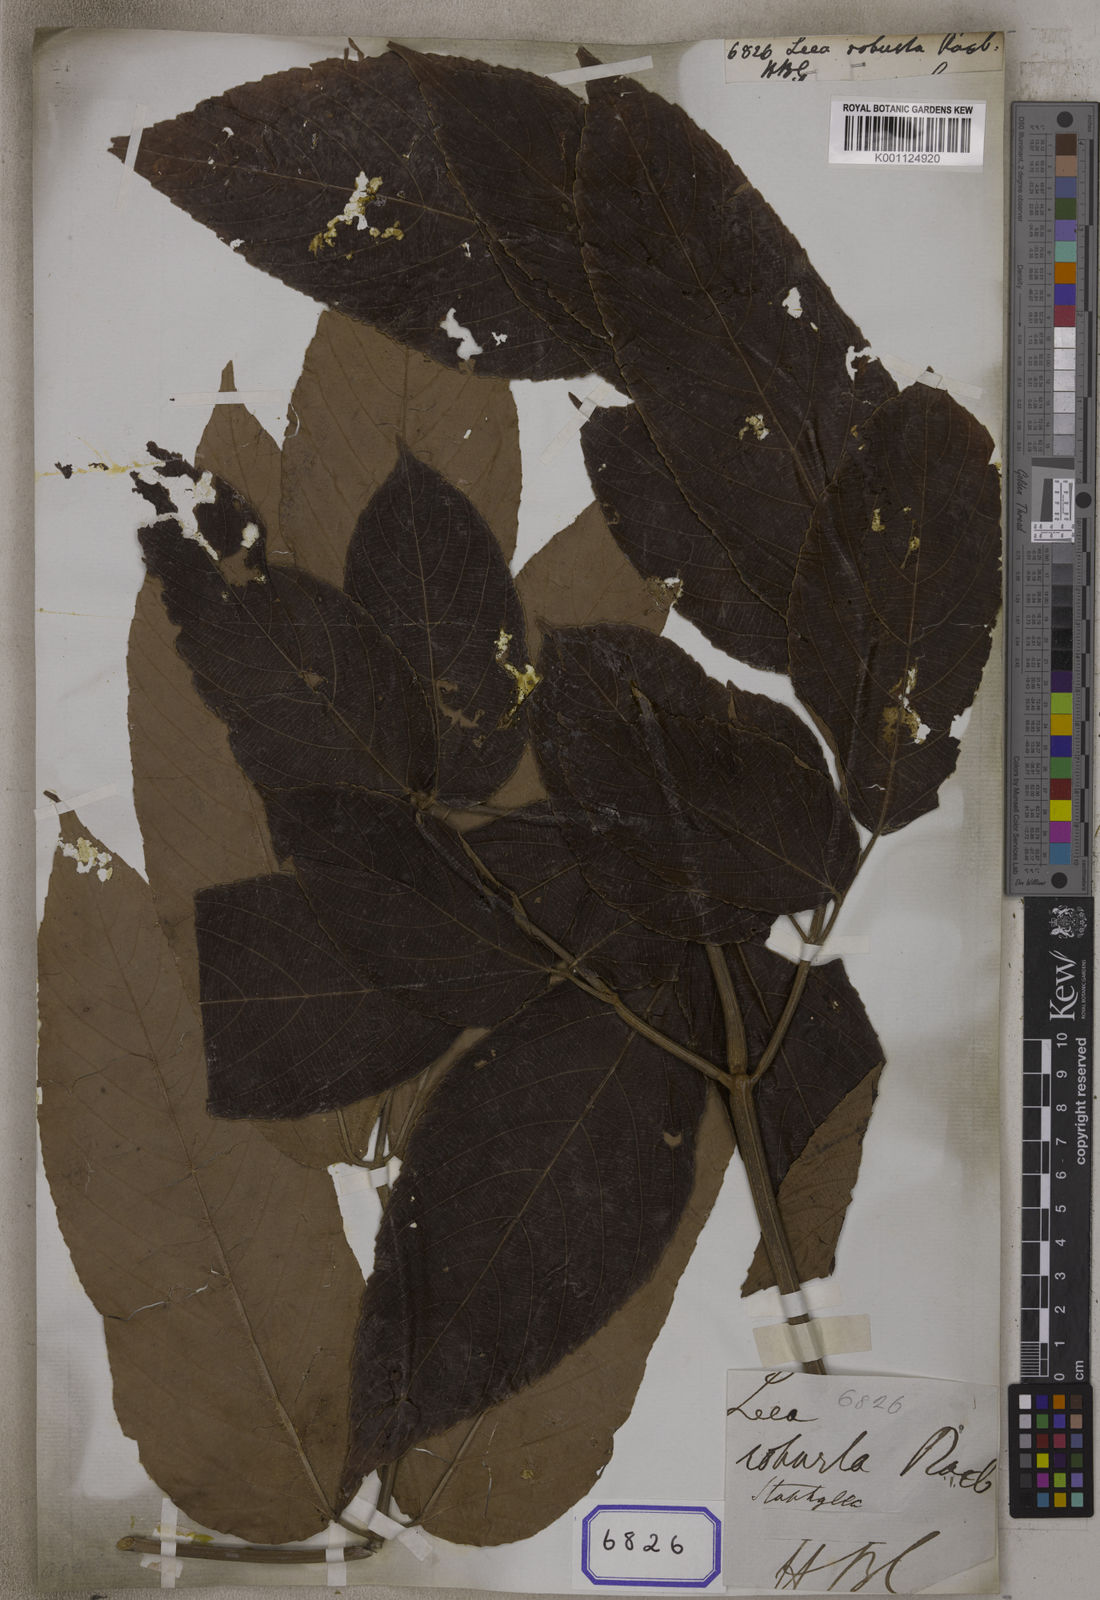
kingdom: Plantae
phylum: Tracheophyta
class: Magnoliopsida
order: Vitales
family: Vitaceae
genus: Leea
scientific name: Leea macrophylla
